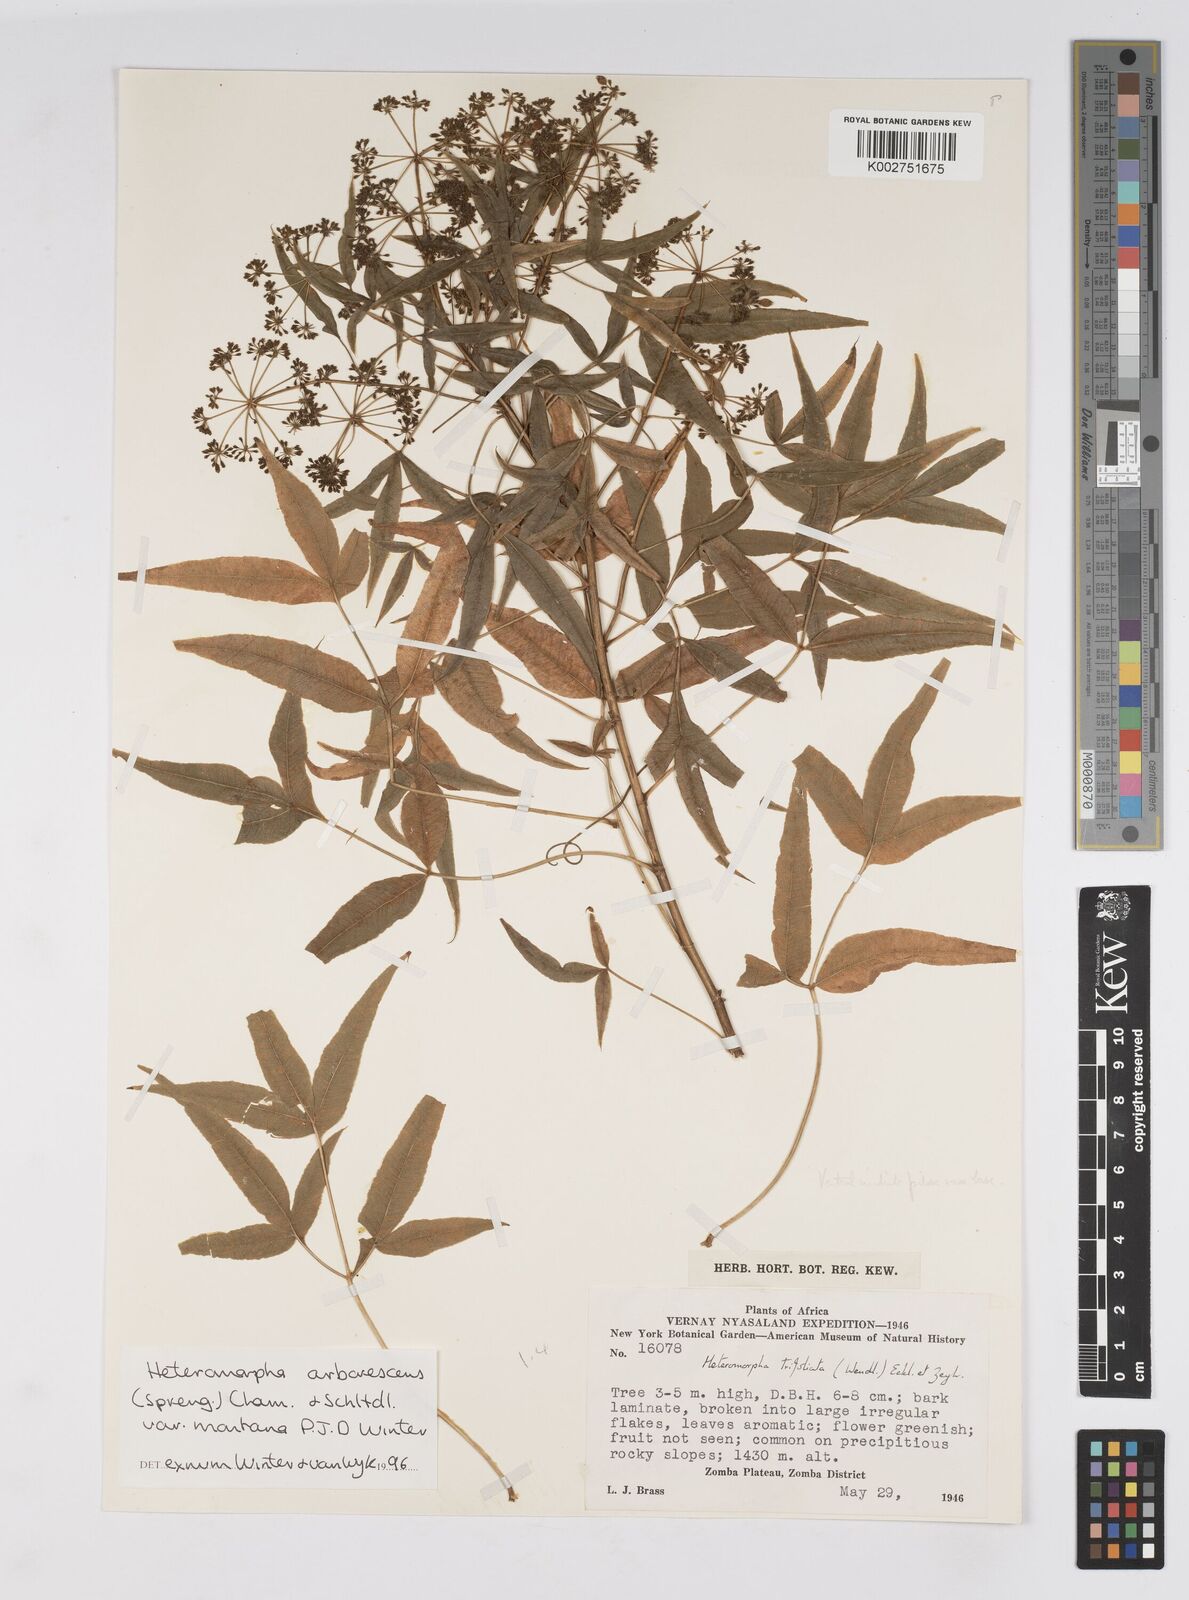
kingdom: Plantae
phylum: Tracheophyta
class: Magnoliopsida
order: Apiales
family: Apiaceae
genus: Heteromorpha
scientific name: Heteromorpha montana
